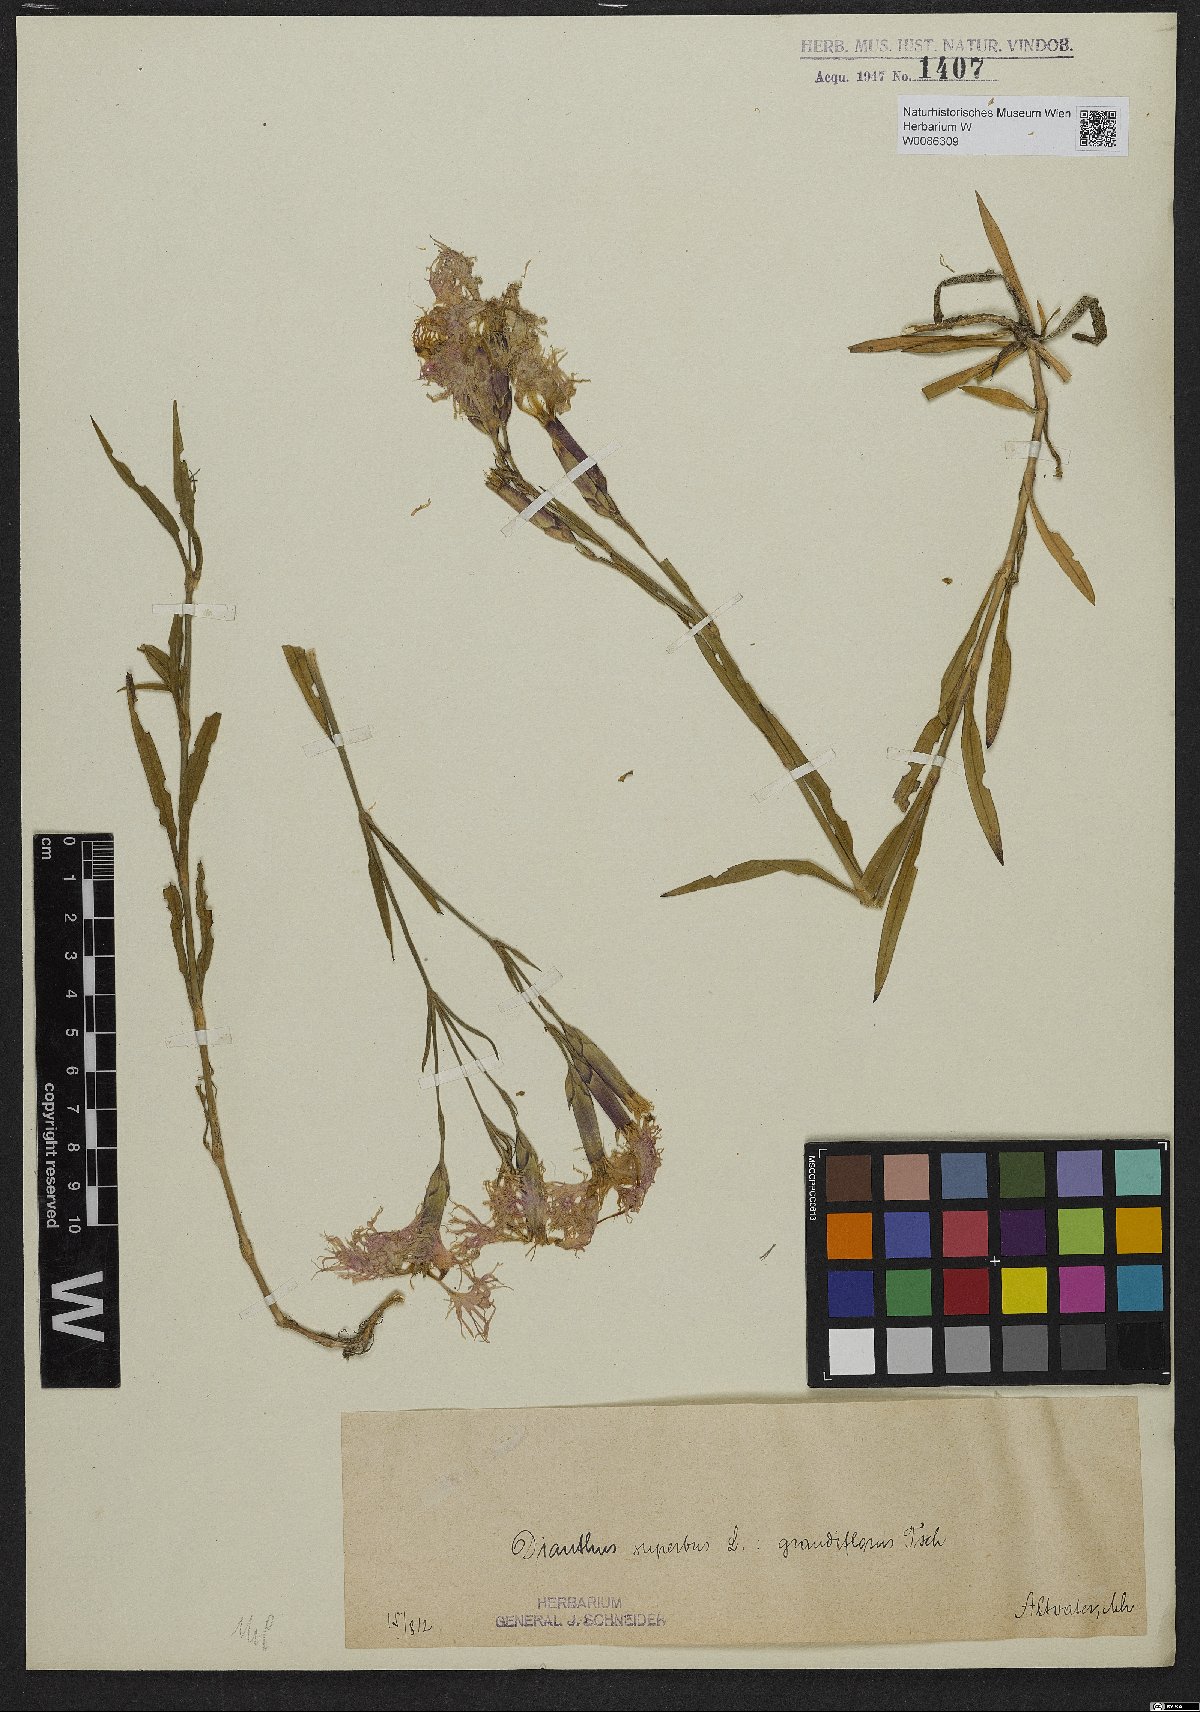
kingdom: Plantae
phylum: Tracheophyta
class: Magnoliopsida
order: Caryophyllales
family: Caryophyllaceae
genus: Dianthus
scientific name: Dianthus superbus
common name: Fringed pink
